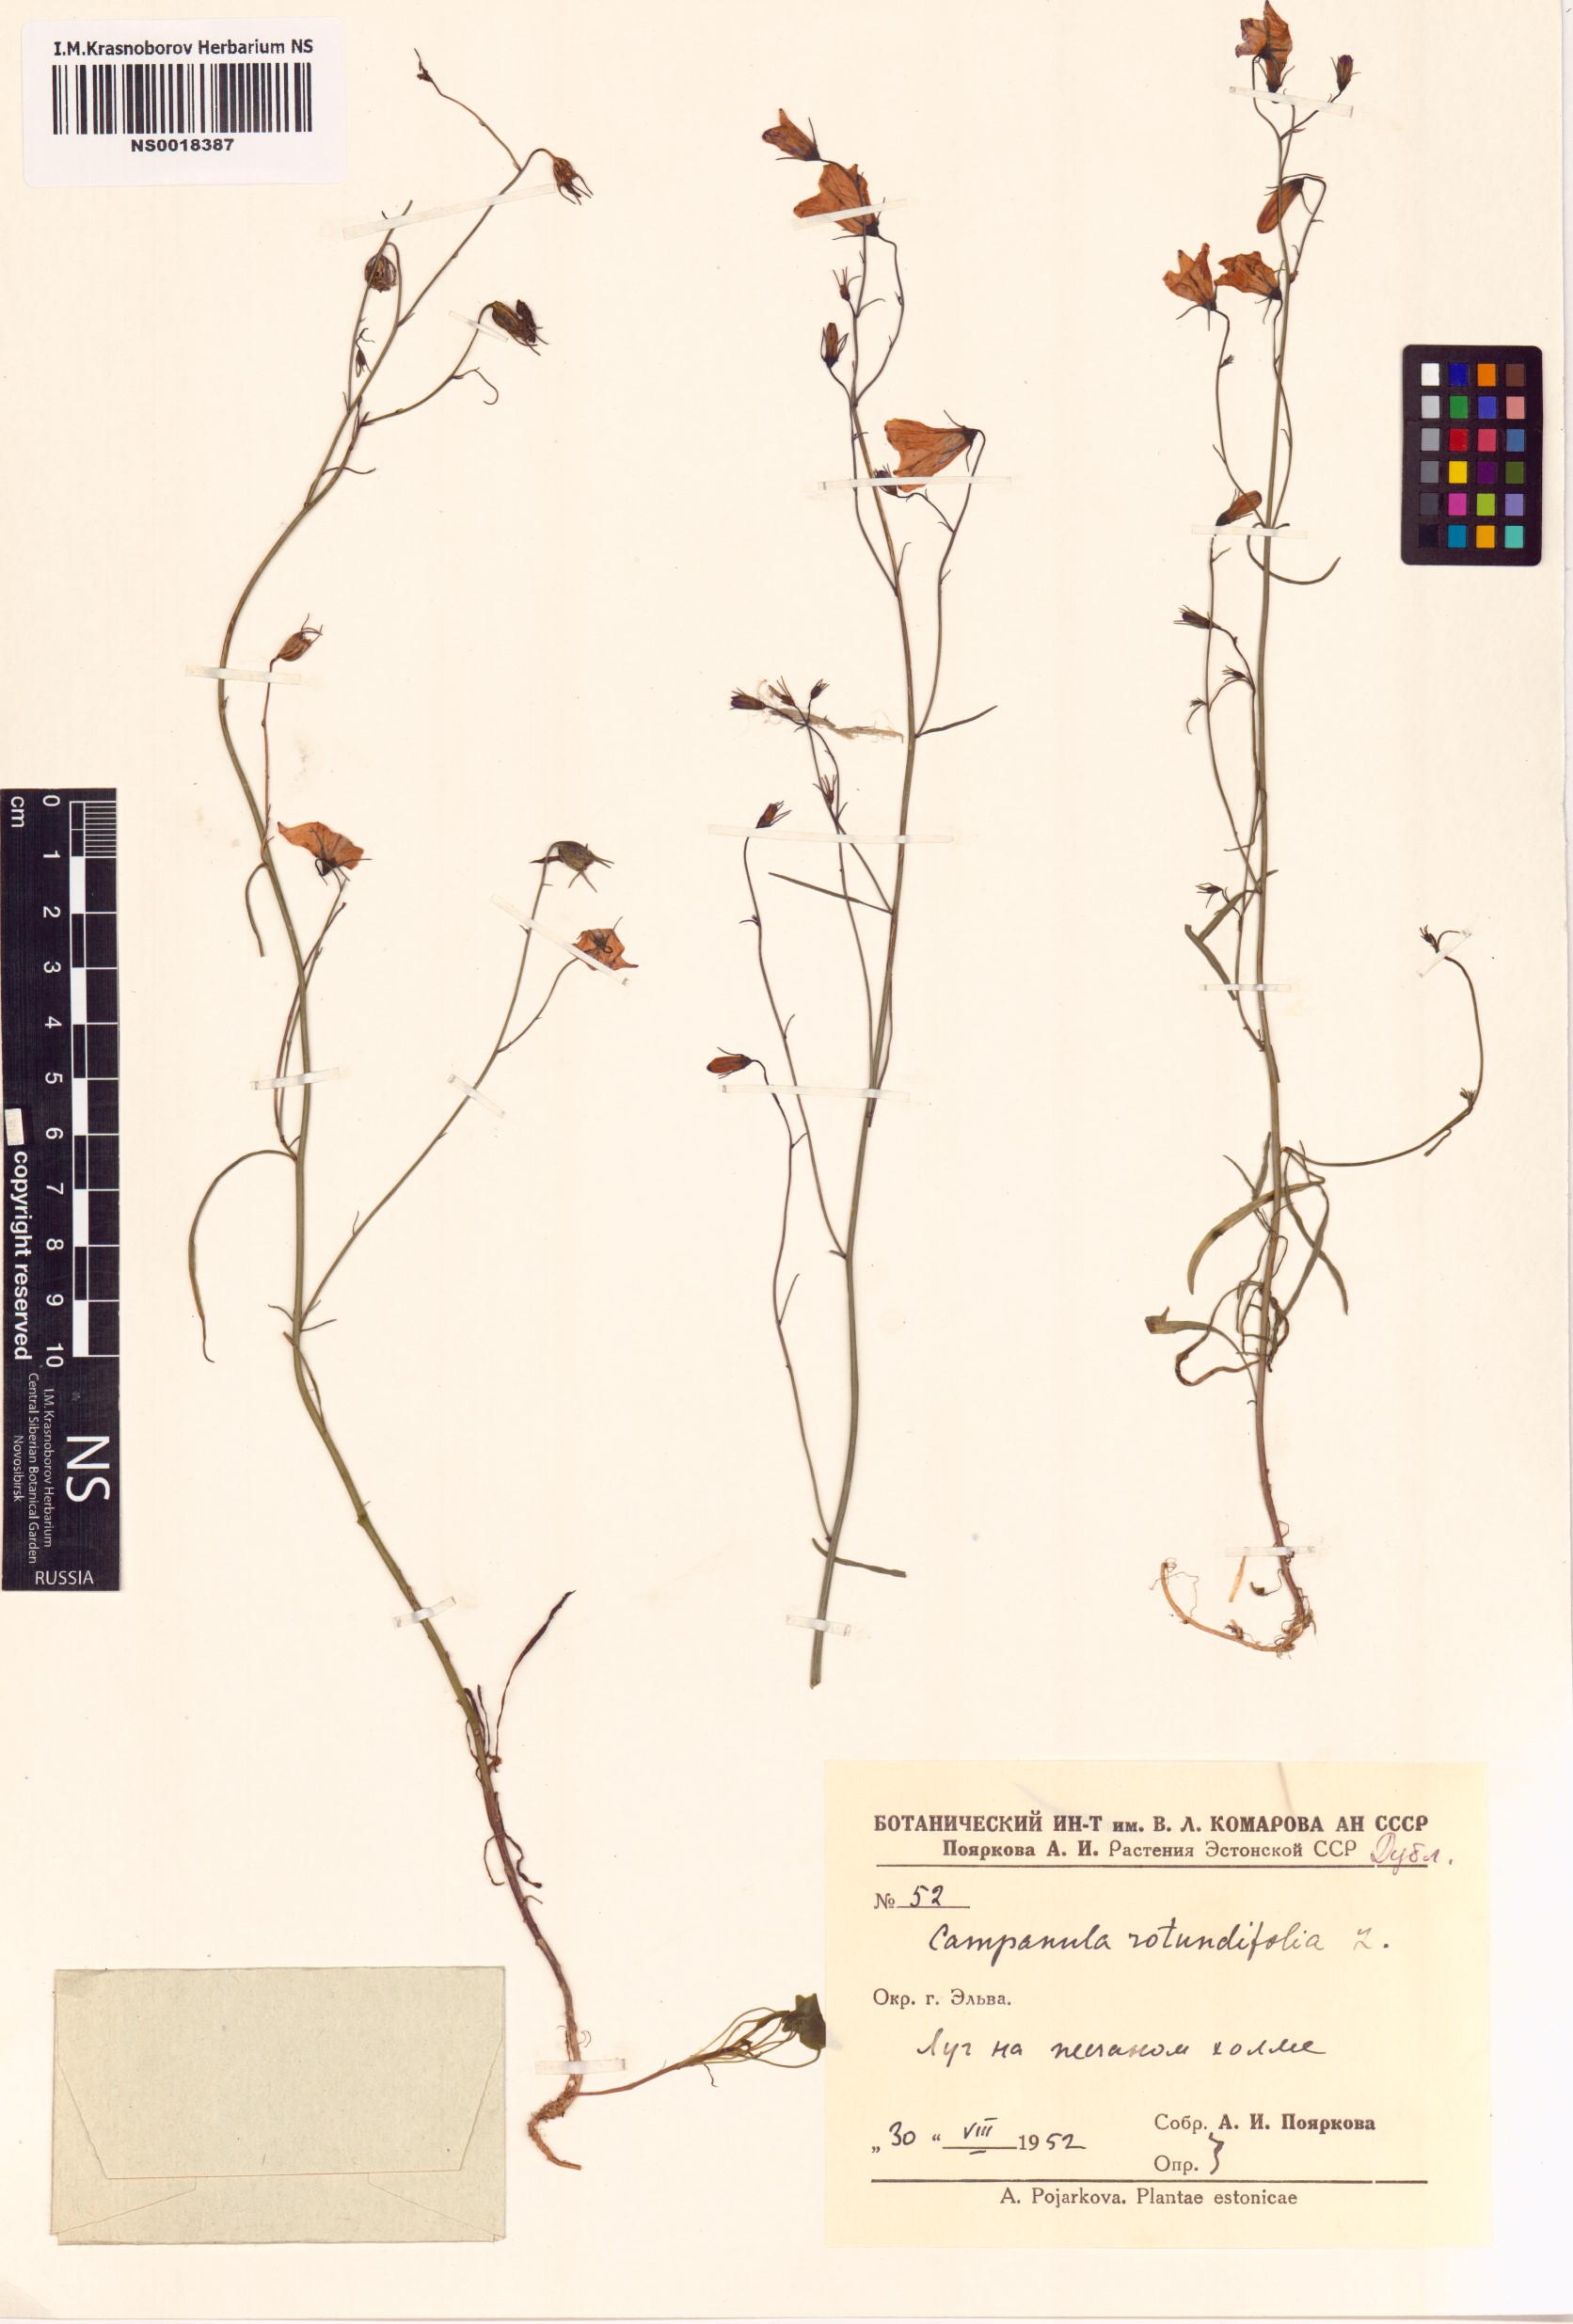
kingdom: Plantae
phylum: Tracheophyta
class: Magnoliopsida
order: Asterales
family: Campanulaceae
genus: Campanula
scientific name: Campanula rotundifolia
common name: Harebell
